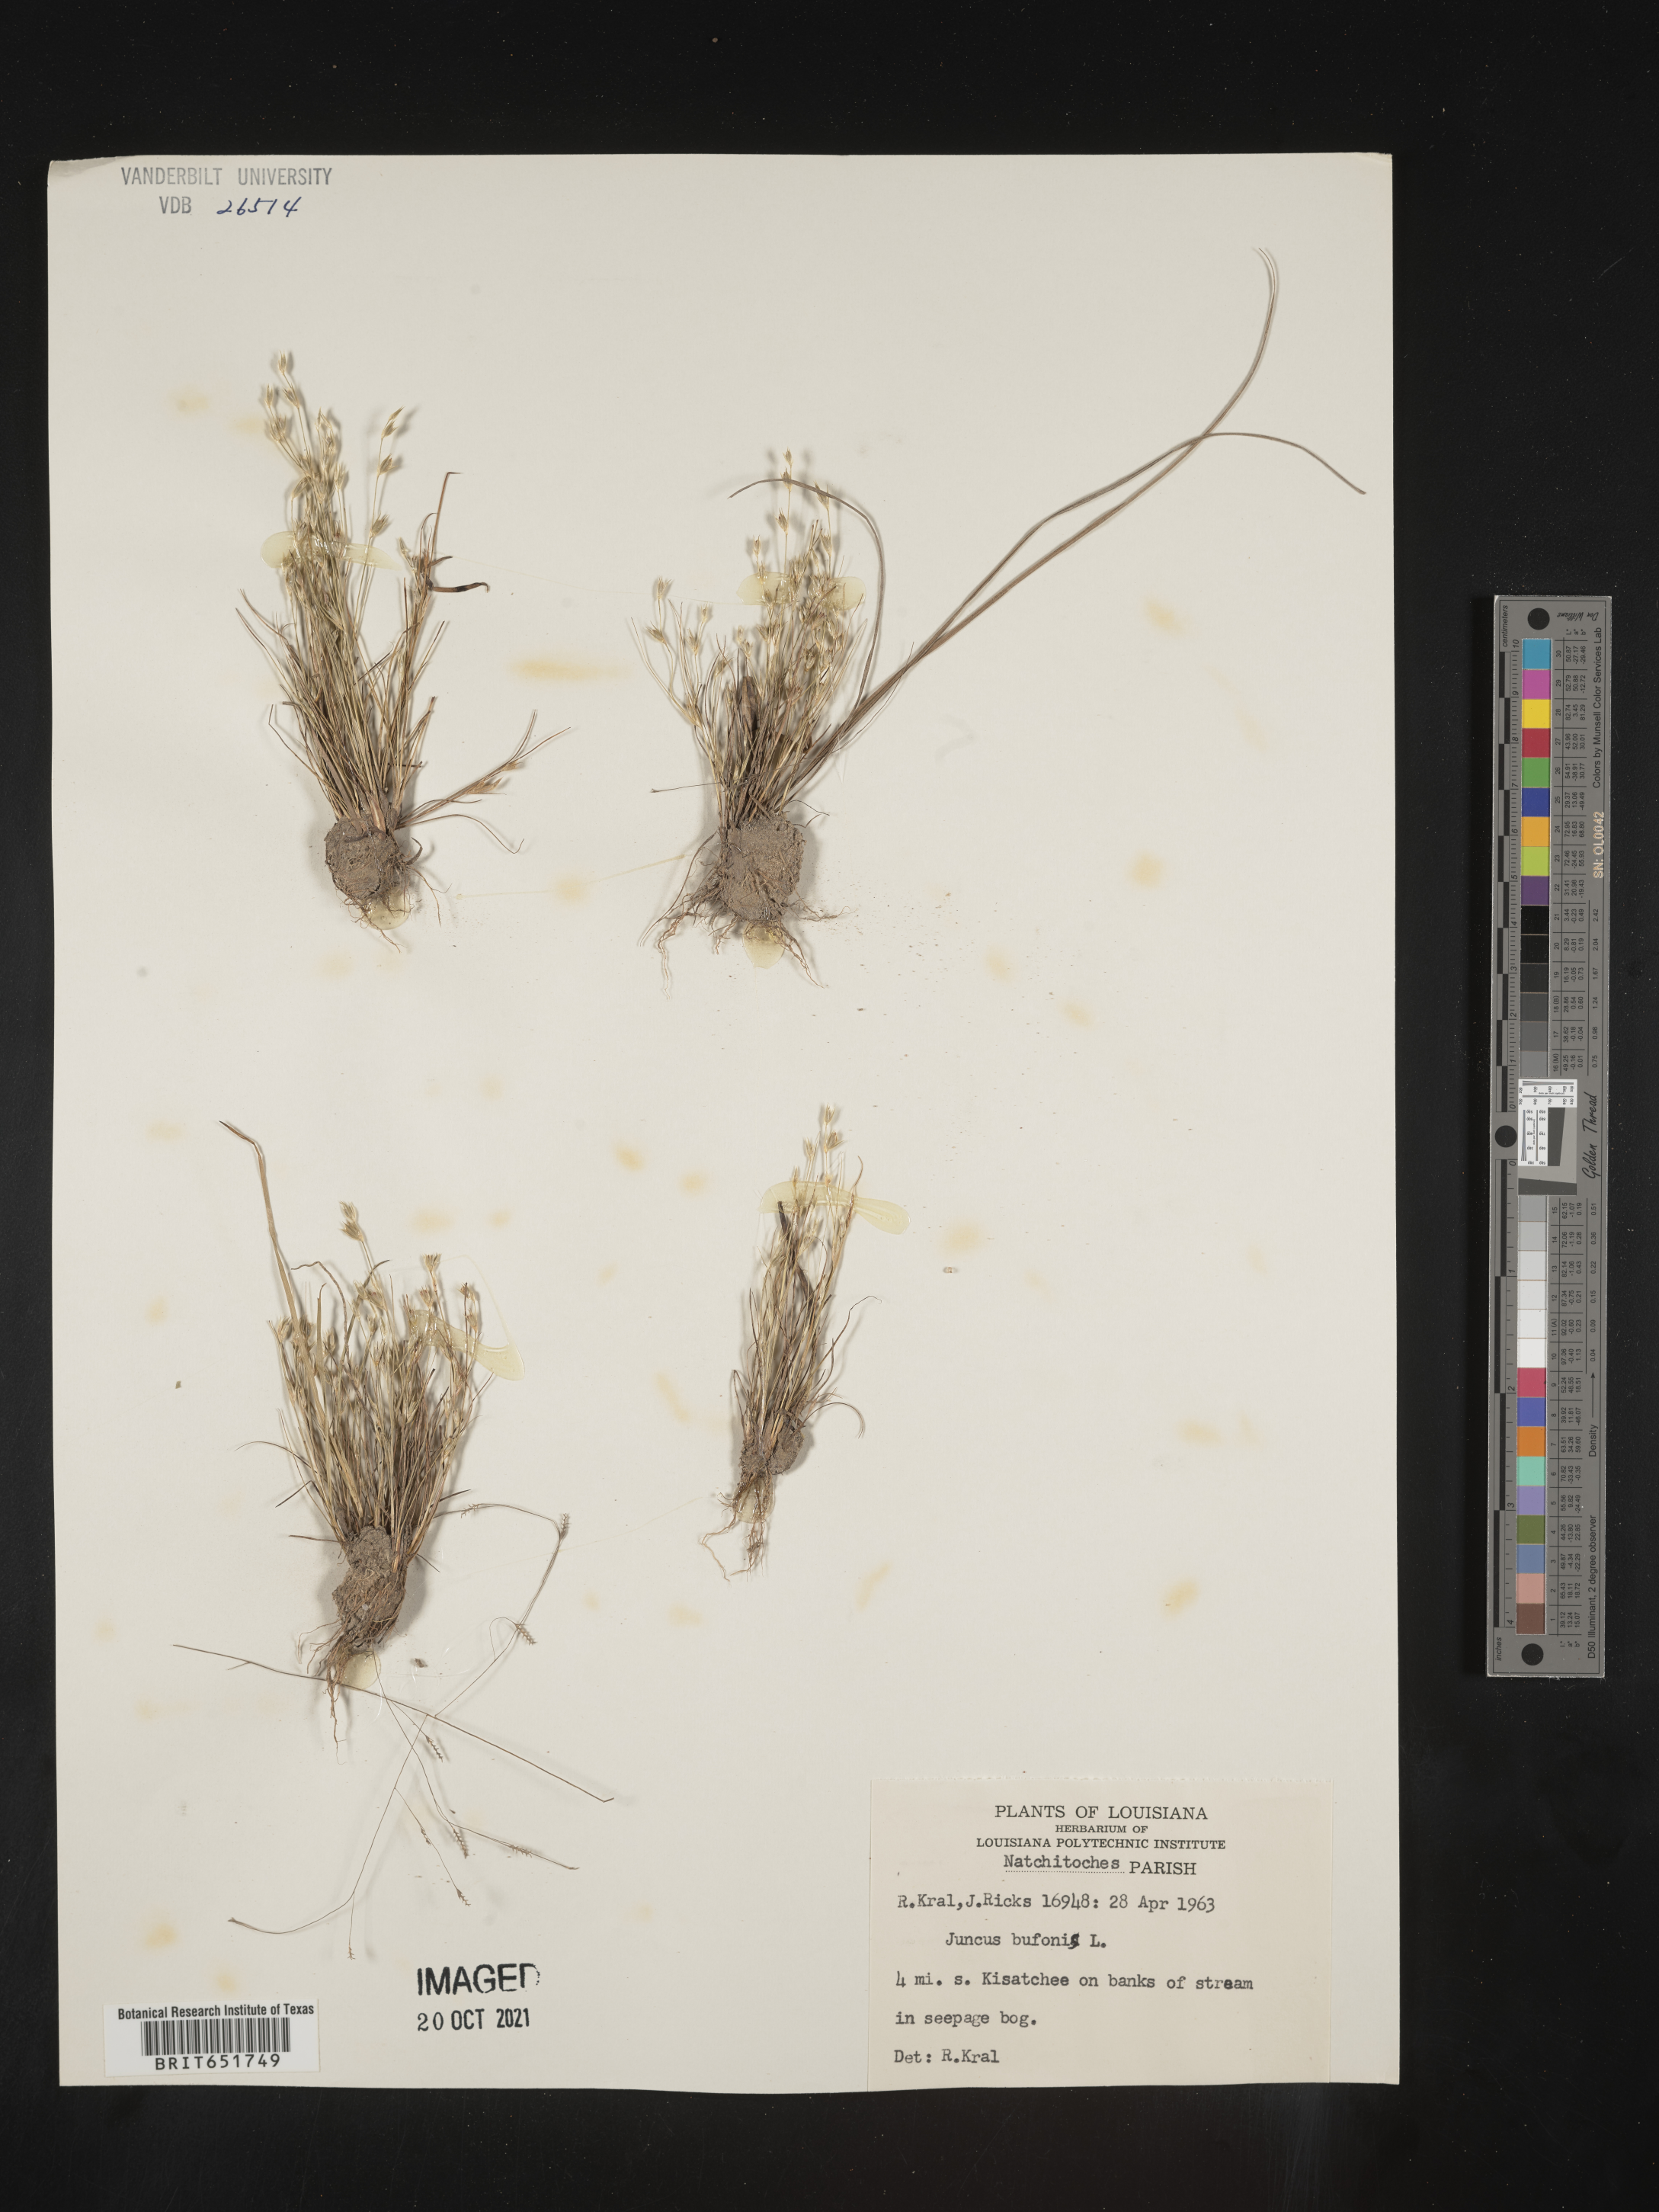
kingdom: Plantae
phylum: Tracheophyta
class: Liliopsida
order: Poales
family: Juncaceae
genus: Juncus
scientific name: Juncus bufonius
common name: Toad rush
